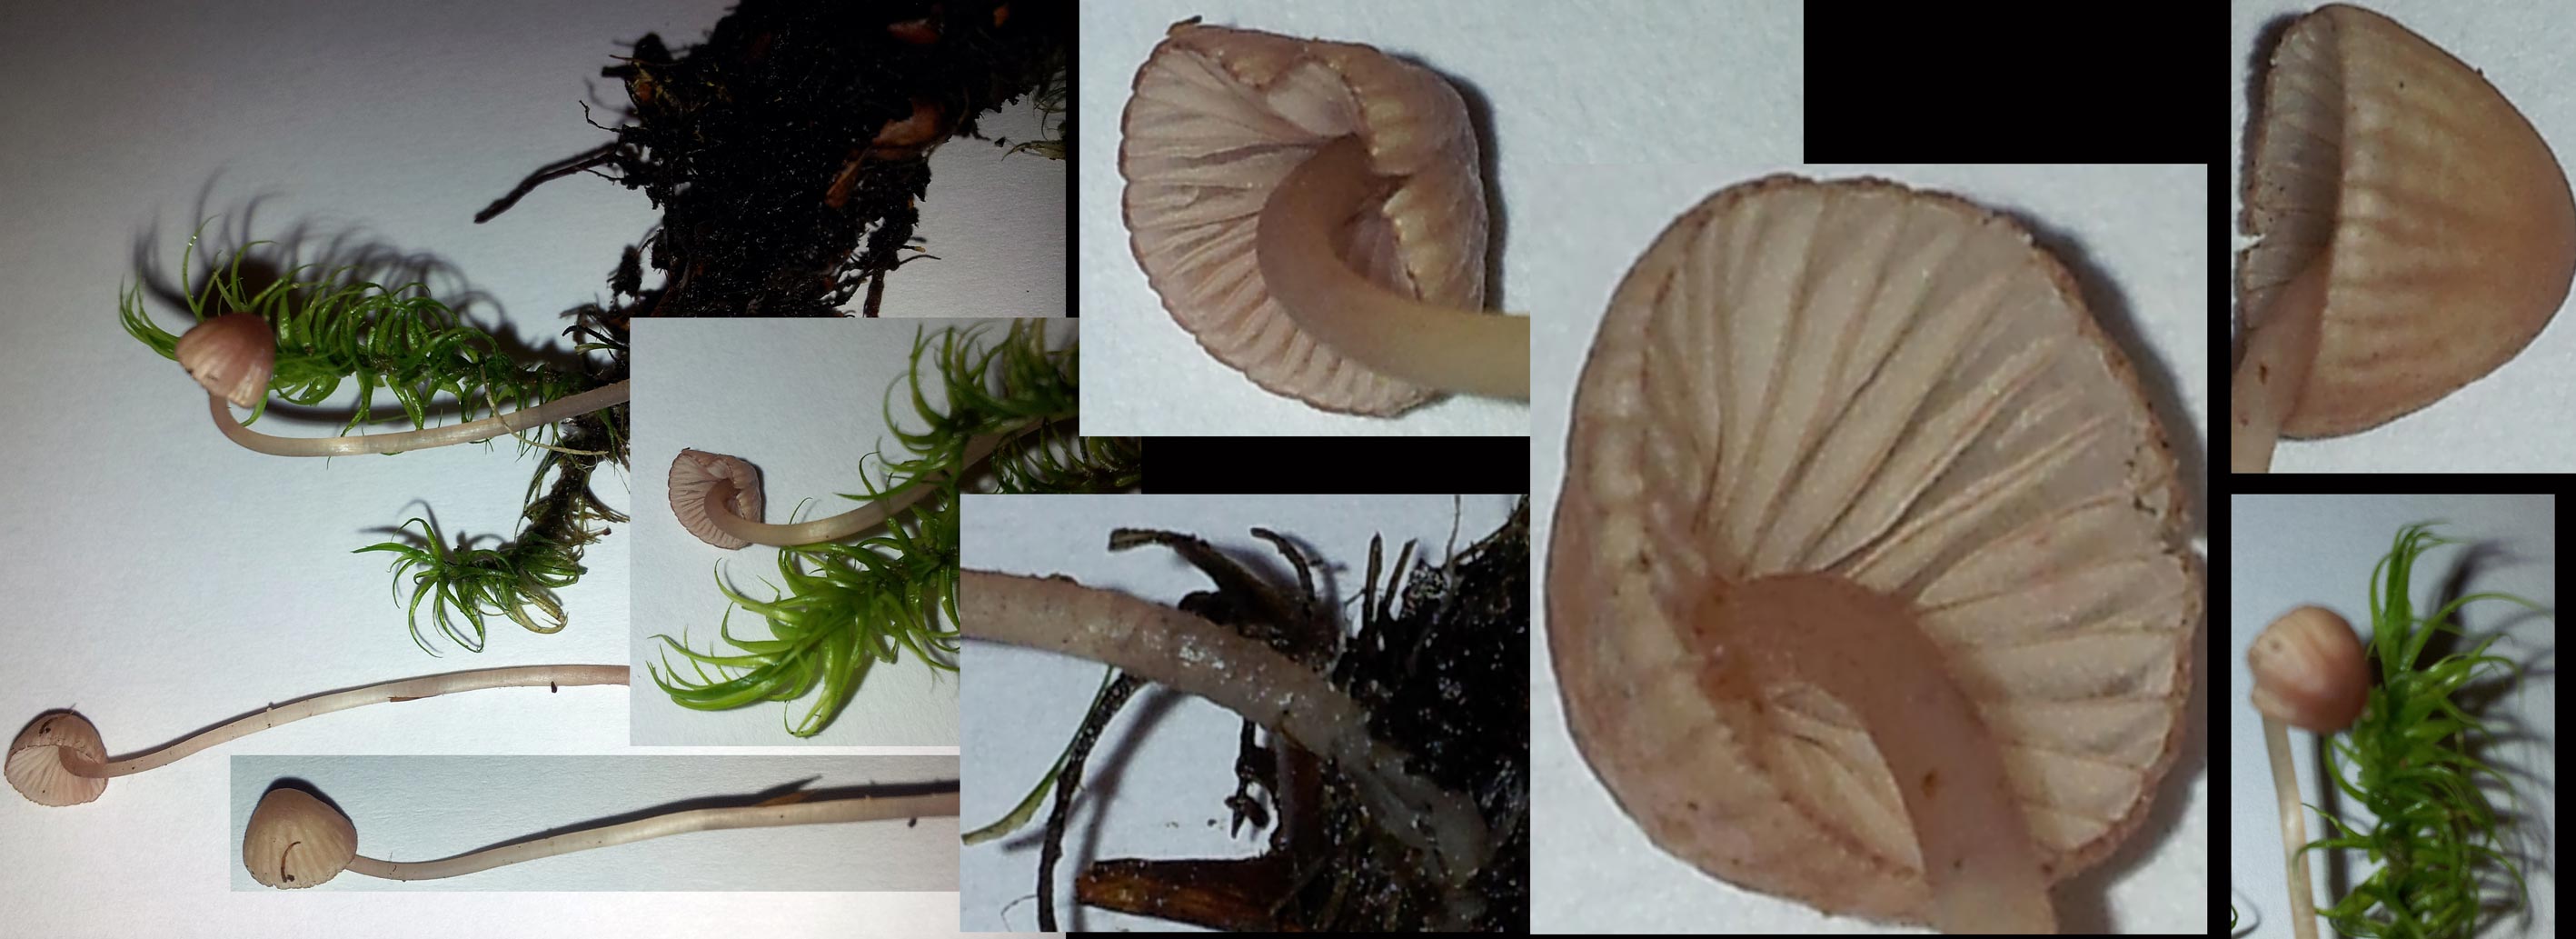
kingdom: Fungi
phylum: Basidiomycota
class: Agaricomycetes
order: Agaricales
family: Mycenaceae
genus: Mycena
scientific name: Mycena sanguinolenta
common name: rødmælket huesvamp
